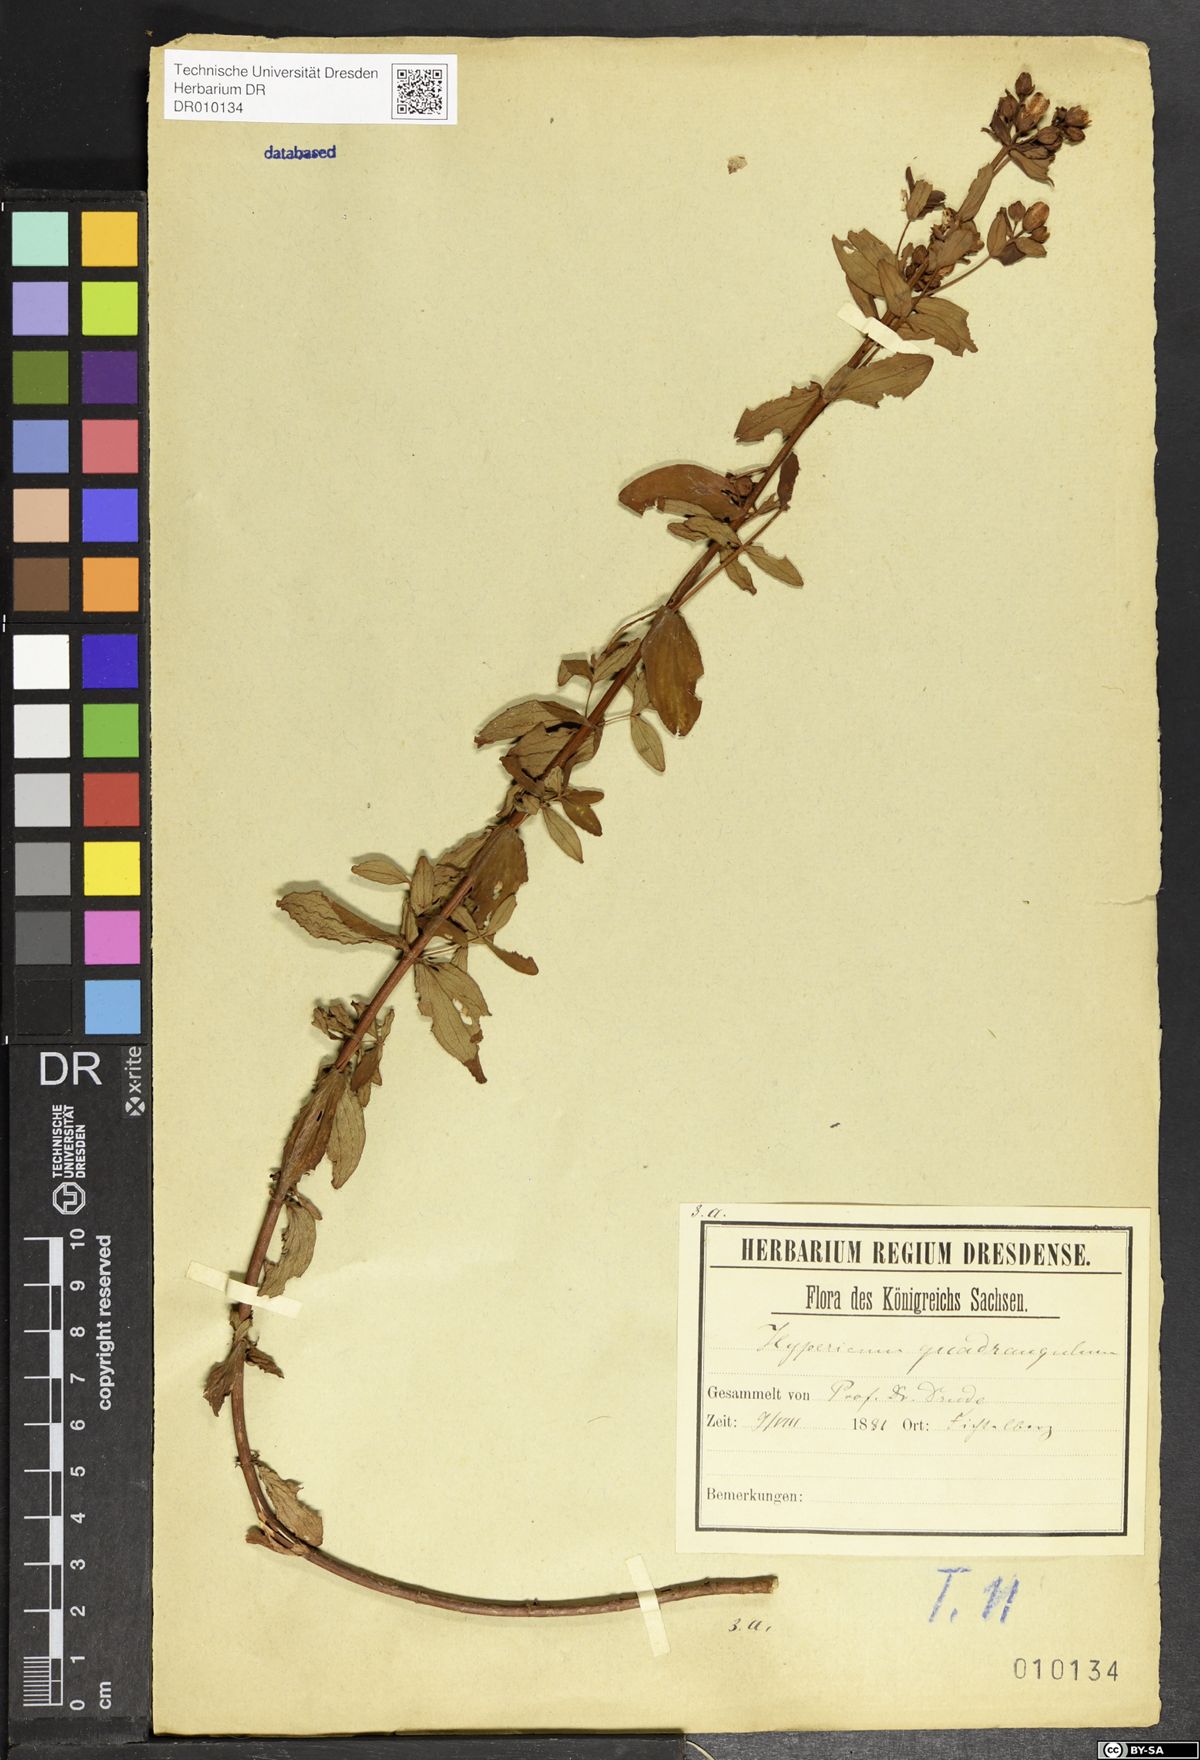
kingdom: Plantae
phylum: Tracheophyta
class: Magnoliopsida
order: Malpighiales
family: Hypericaceae
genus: Hypericum
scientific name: Hypericum maculatum
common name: Imperforate st. john's-wort
